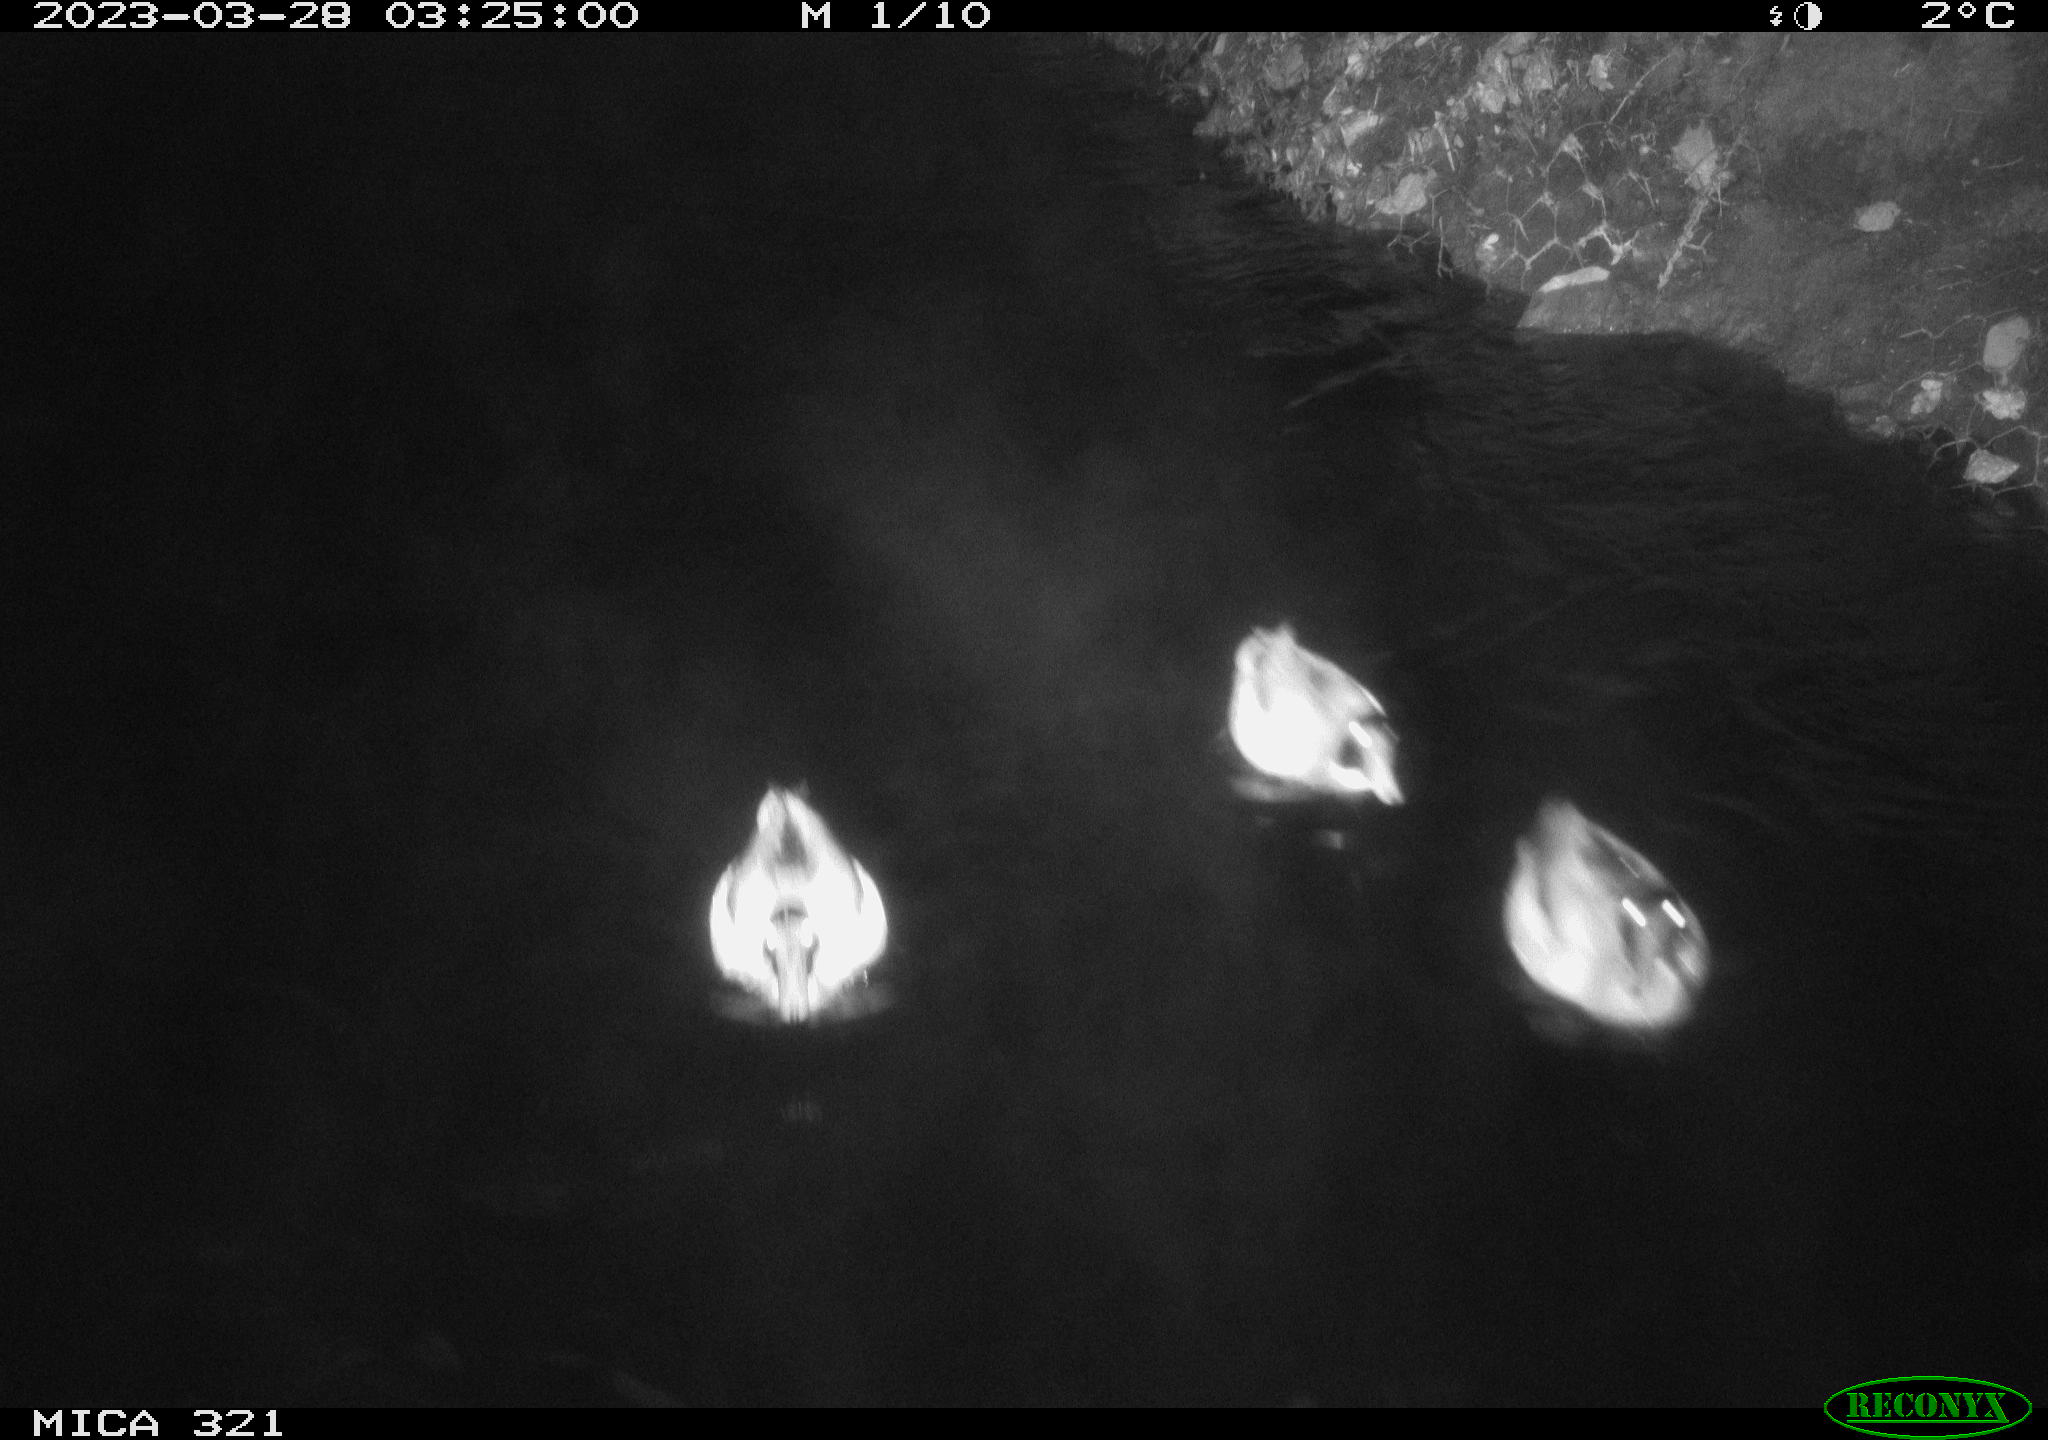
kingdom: Animalia
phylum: Chordata
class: Aves
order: Anseriformes
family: Anatidae
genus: Anas
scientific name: Anas
